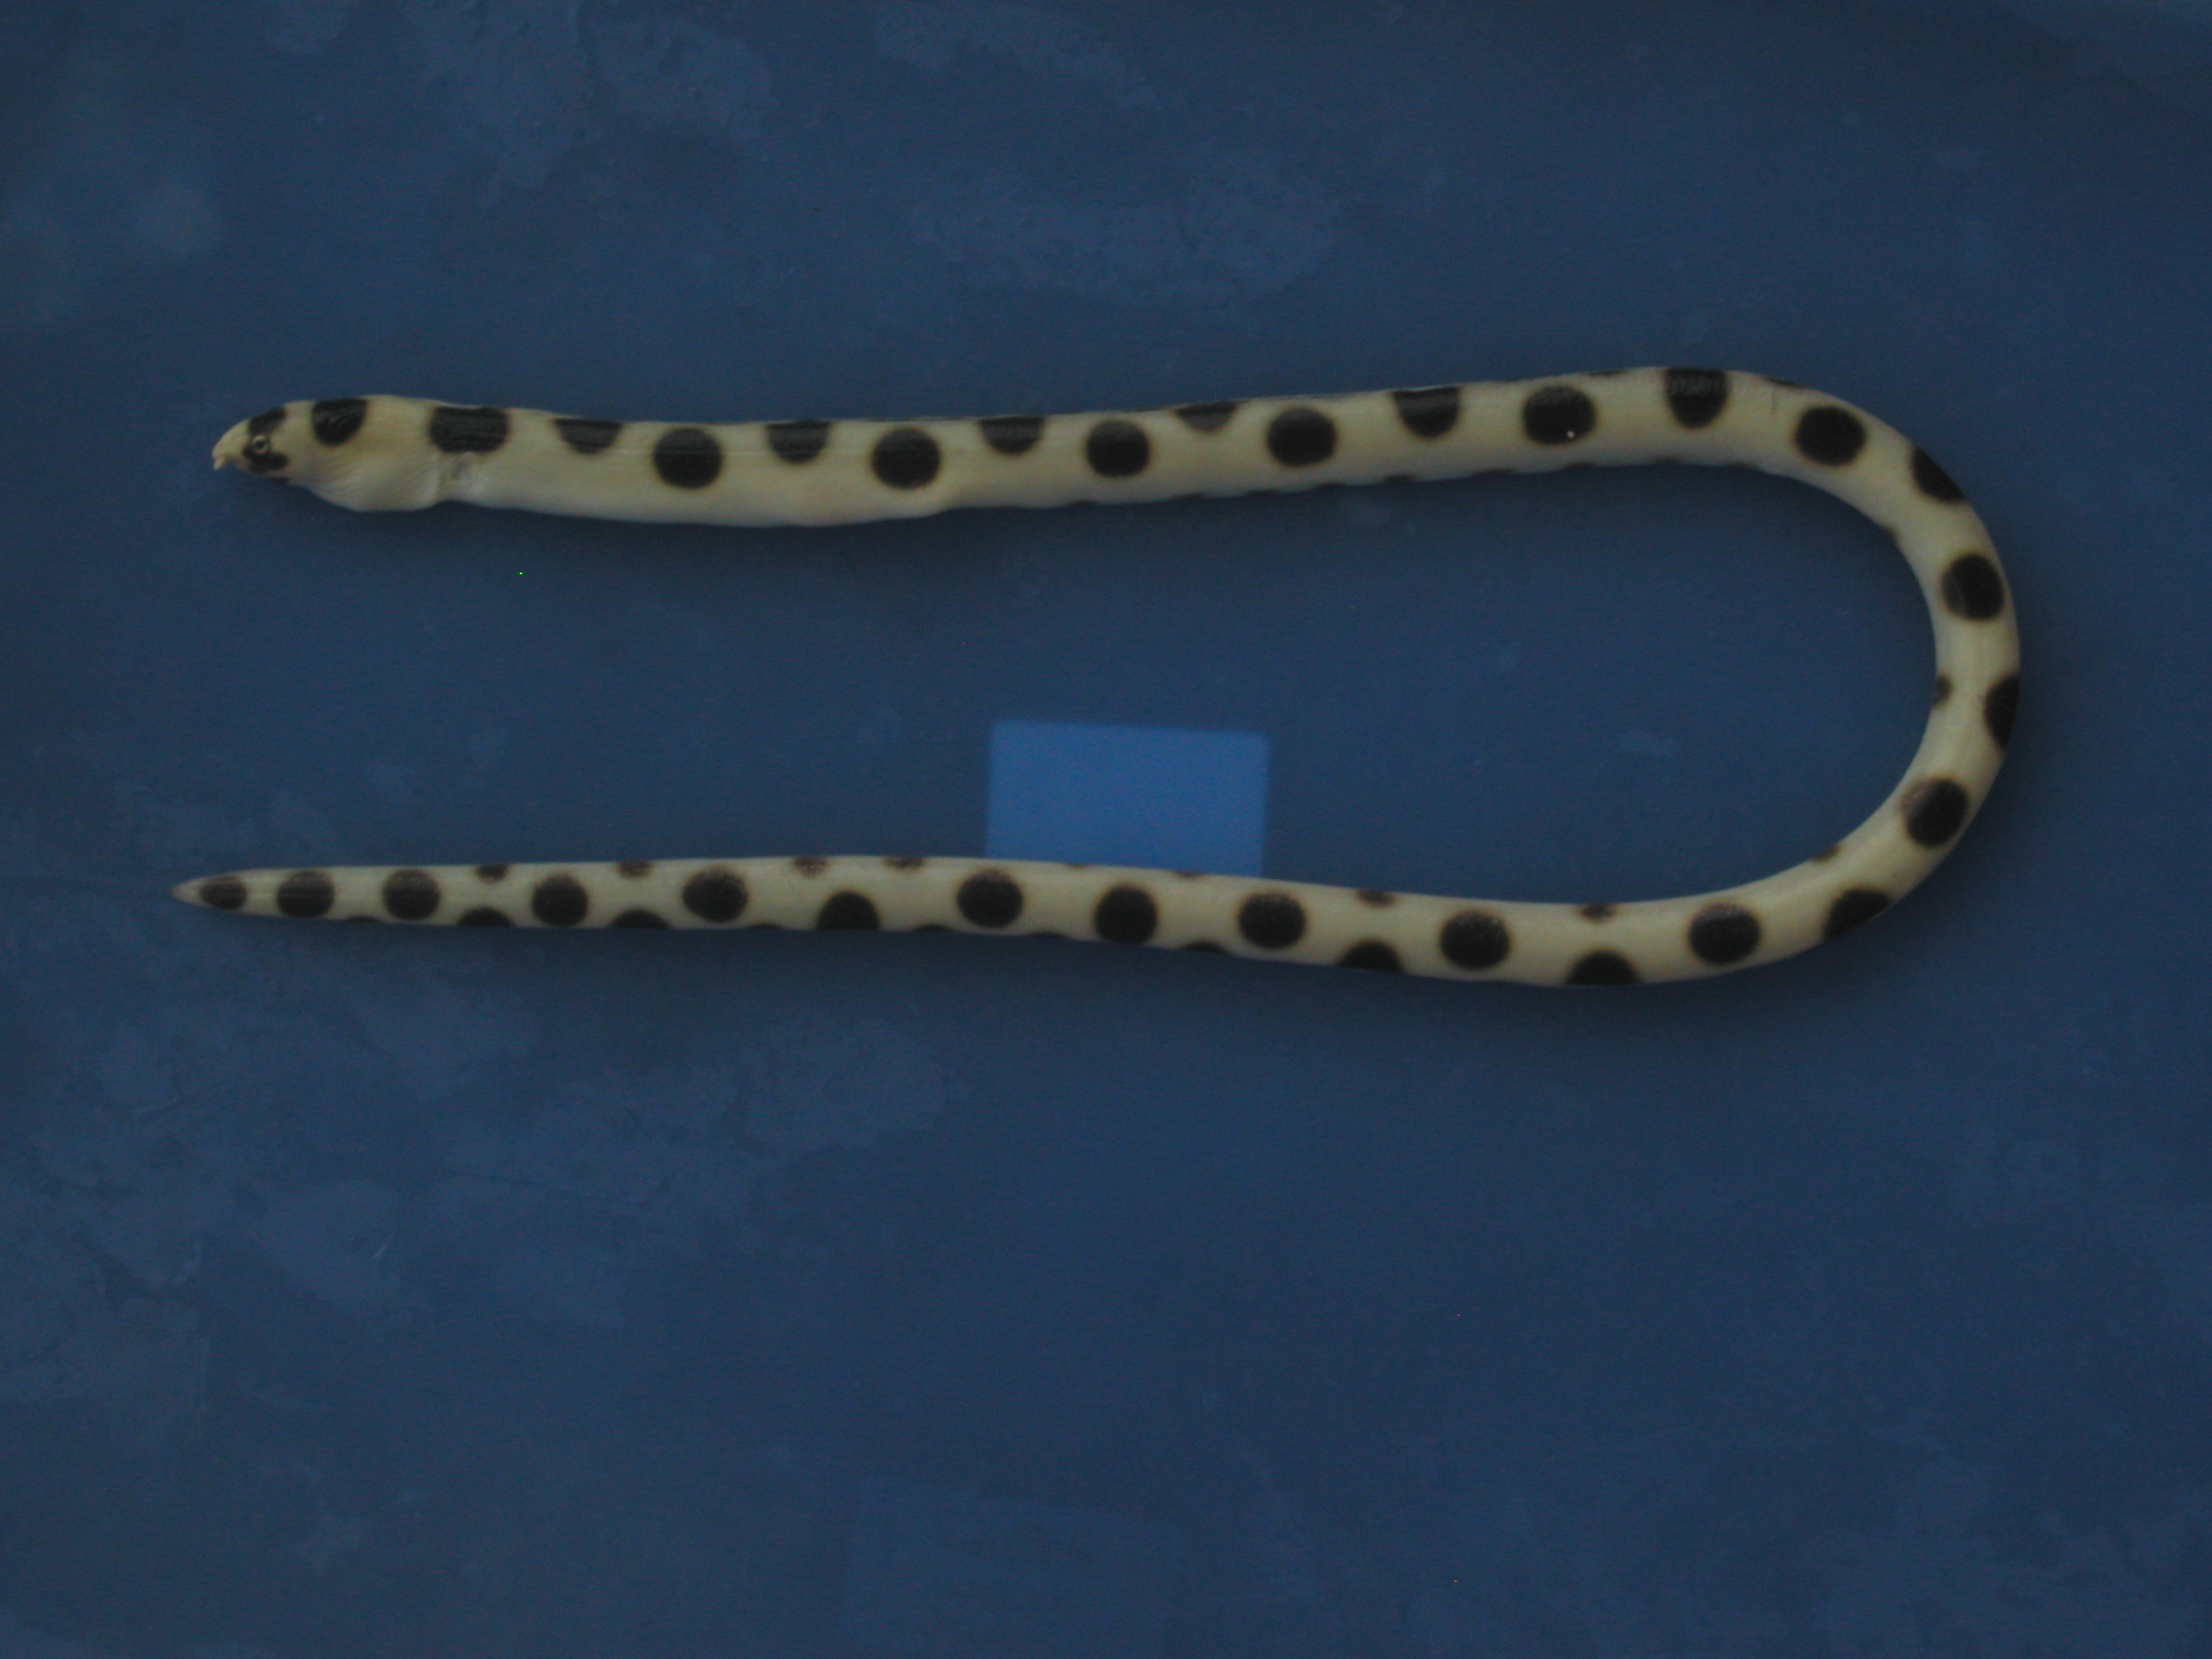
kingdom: Animalia
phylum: Chordata
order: Anguilliformes
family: Ophichthidae
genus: Myrichthys
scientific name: Myrichthys maculosus
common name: Spotted snake eel
